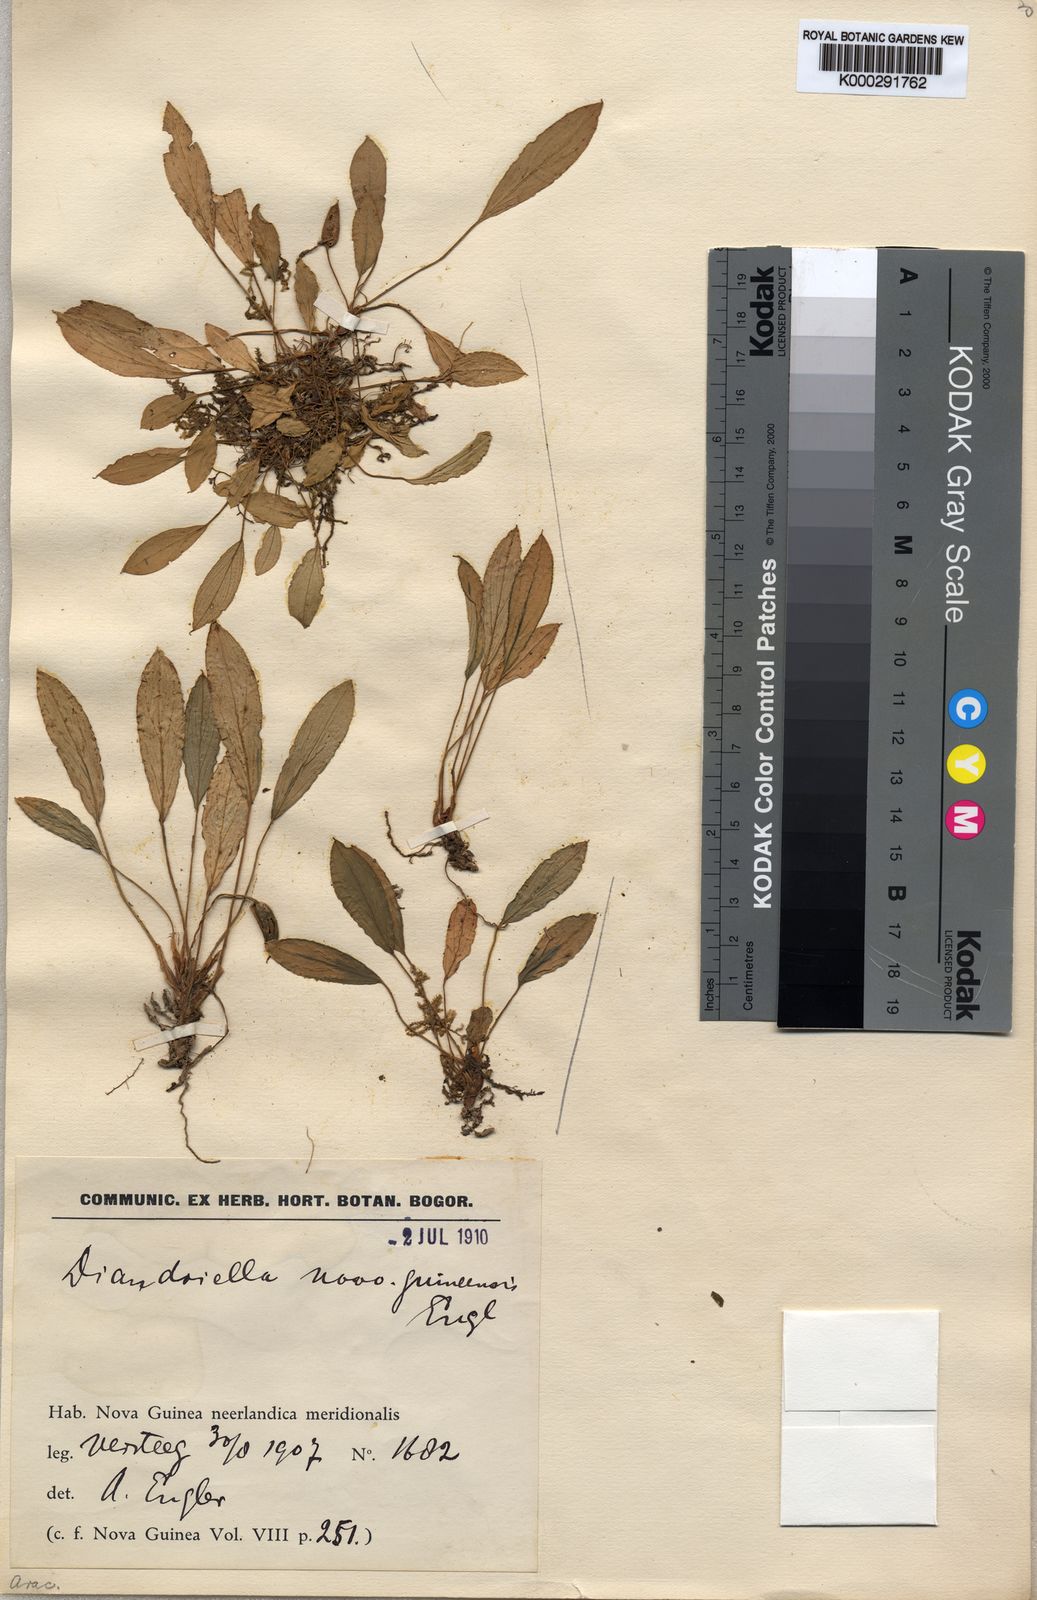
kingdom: Plantae
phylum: Tracheophyta
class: Liliopsida
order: Alismatales
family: Araceae
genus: Homalomena
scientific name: Homalomena stollei
